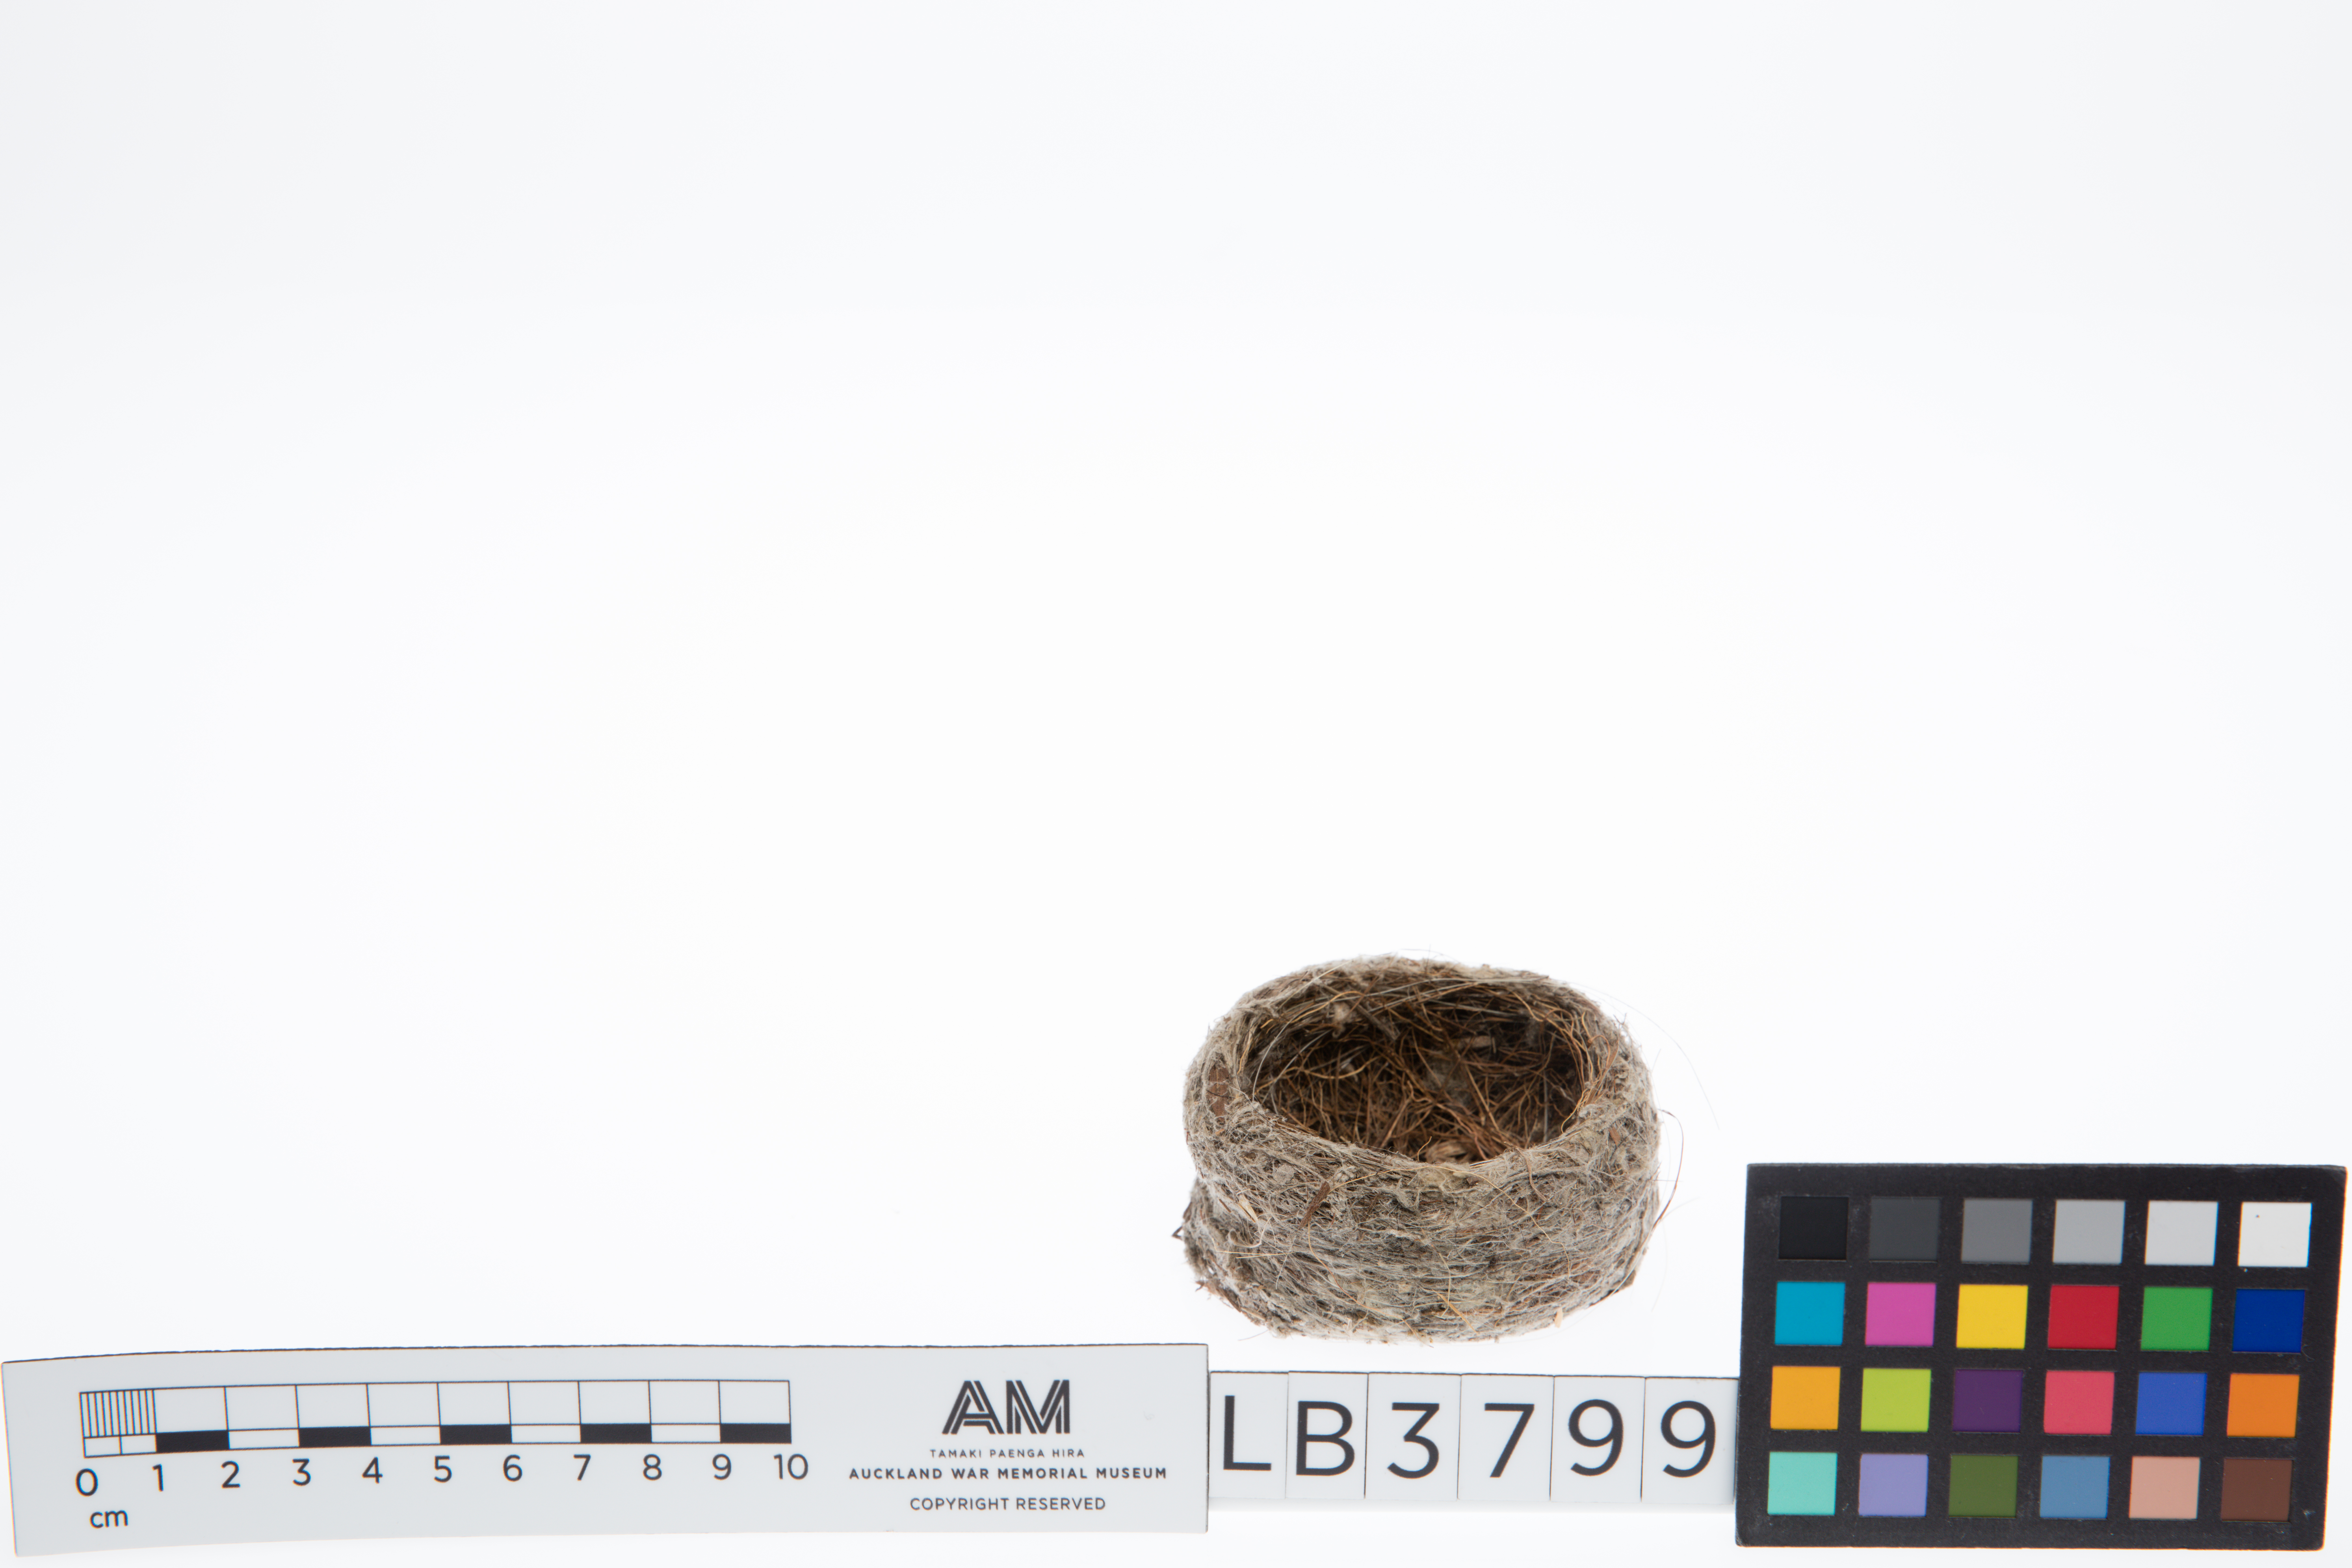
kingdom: Animalia
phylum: Chordata
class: Aves
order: Passeriformes
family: Rhipiduridae
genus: Rhipidura
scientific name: Rhipidura leucophrys
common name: Willie wagtail
